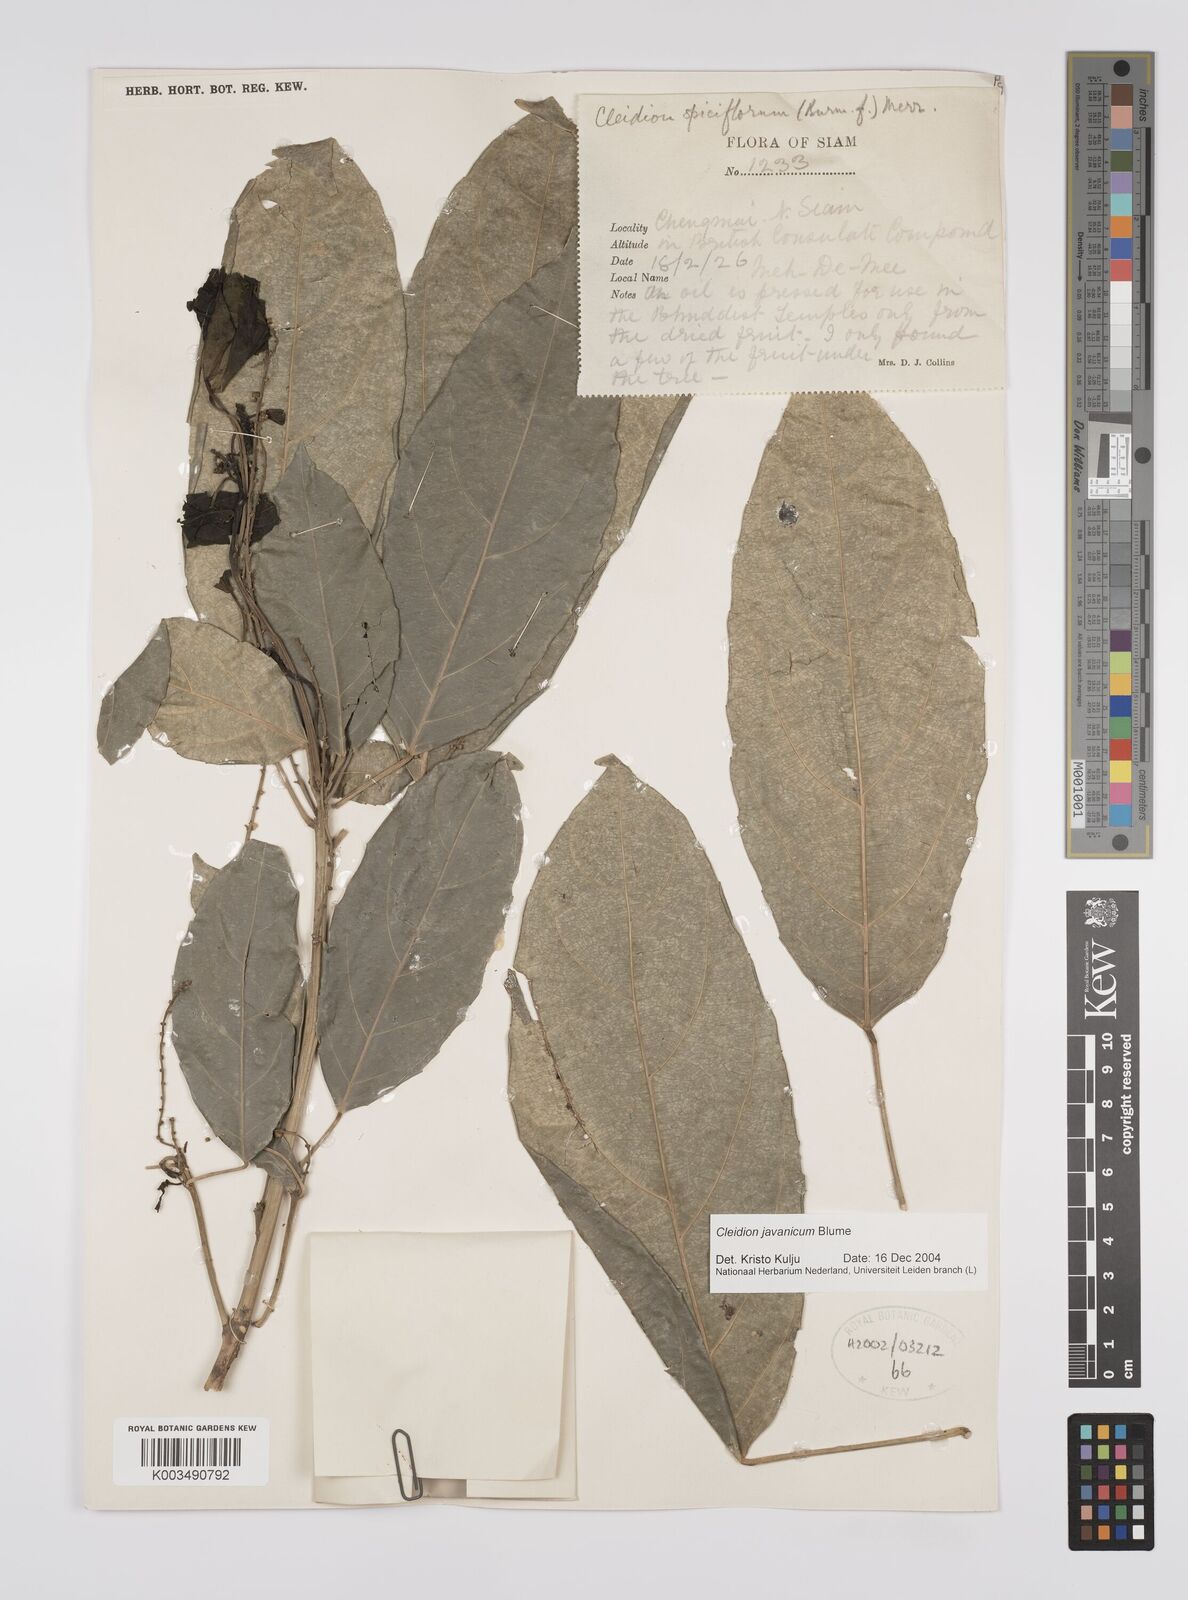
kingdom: Plantae
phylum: Tracheophyta
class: Magnoliopsida
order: Malpighiales
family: Euphorbiaceae
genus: Cleidion
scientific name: Cleidion javanicum
